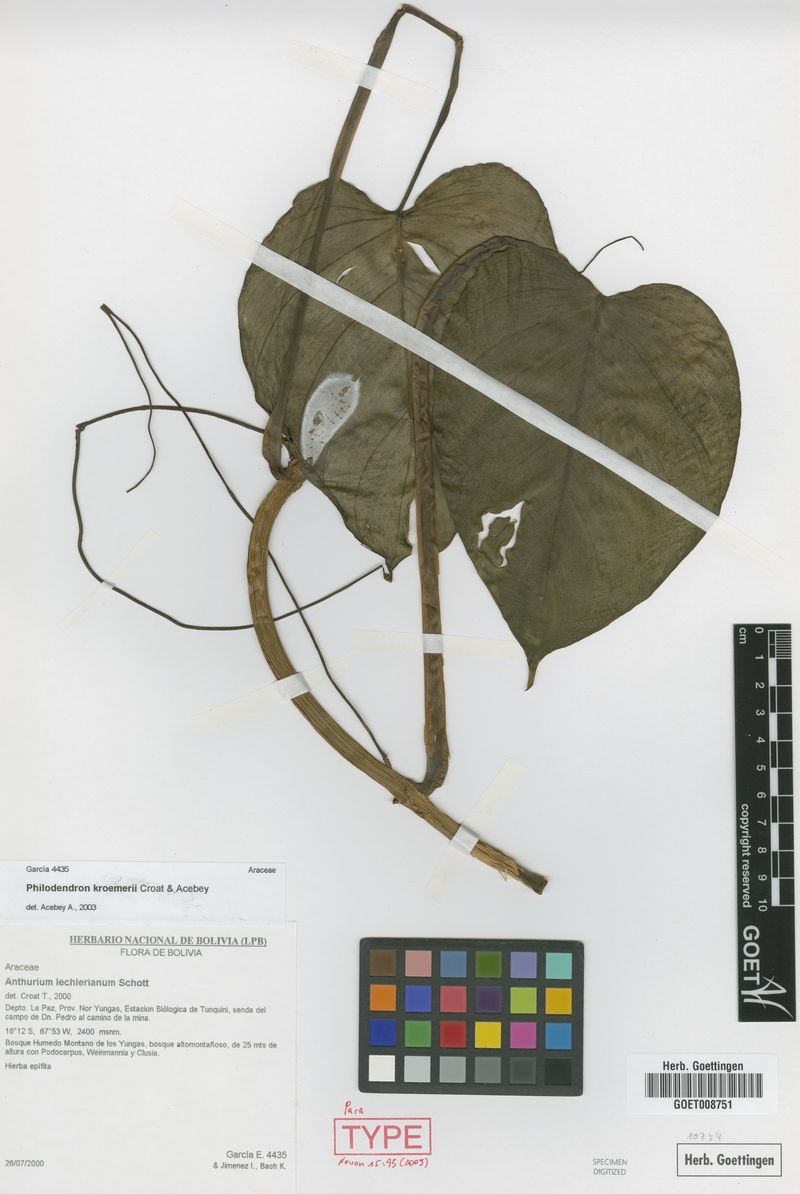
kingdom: Plantae
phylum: Tracheophyta
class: Liliopsida
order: Alismatales
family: Araceae
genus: Philodendron
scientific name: Philodendron kroemeri
